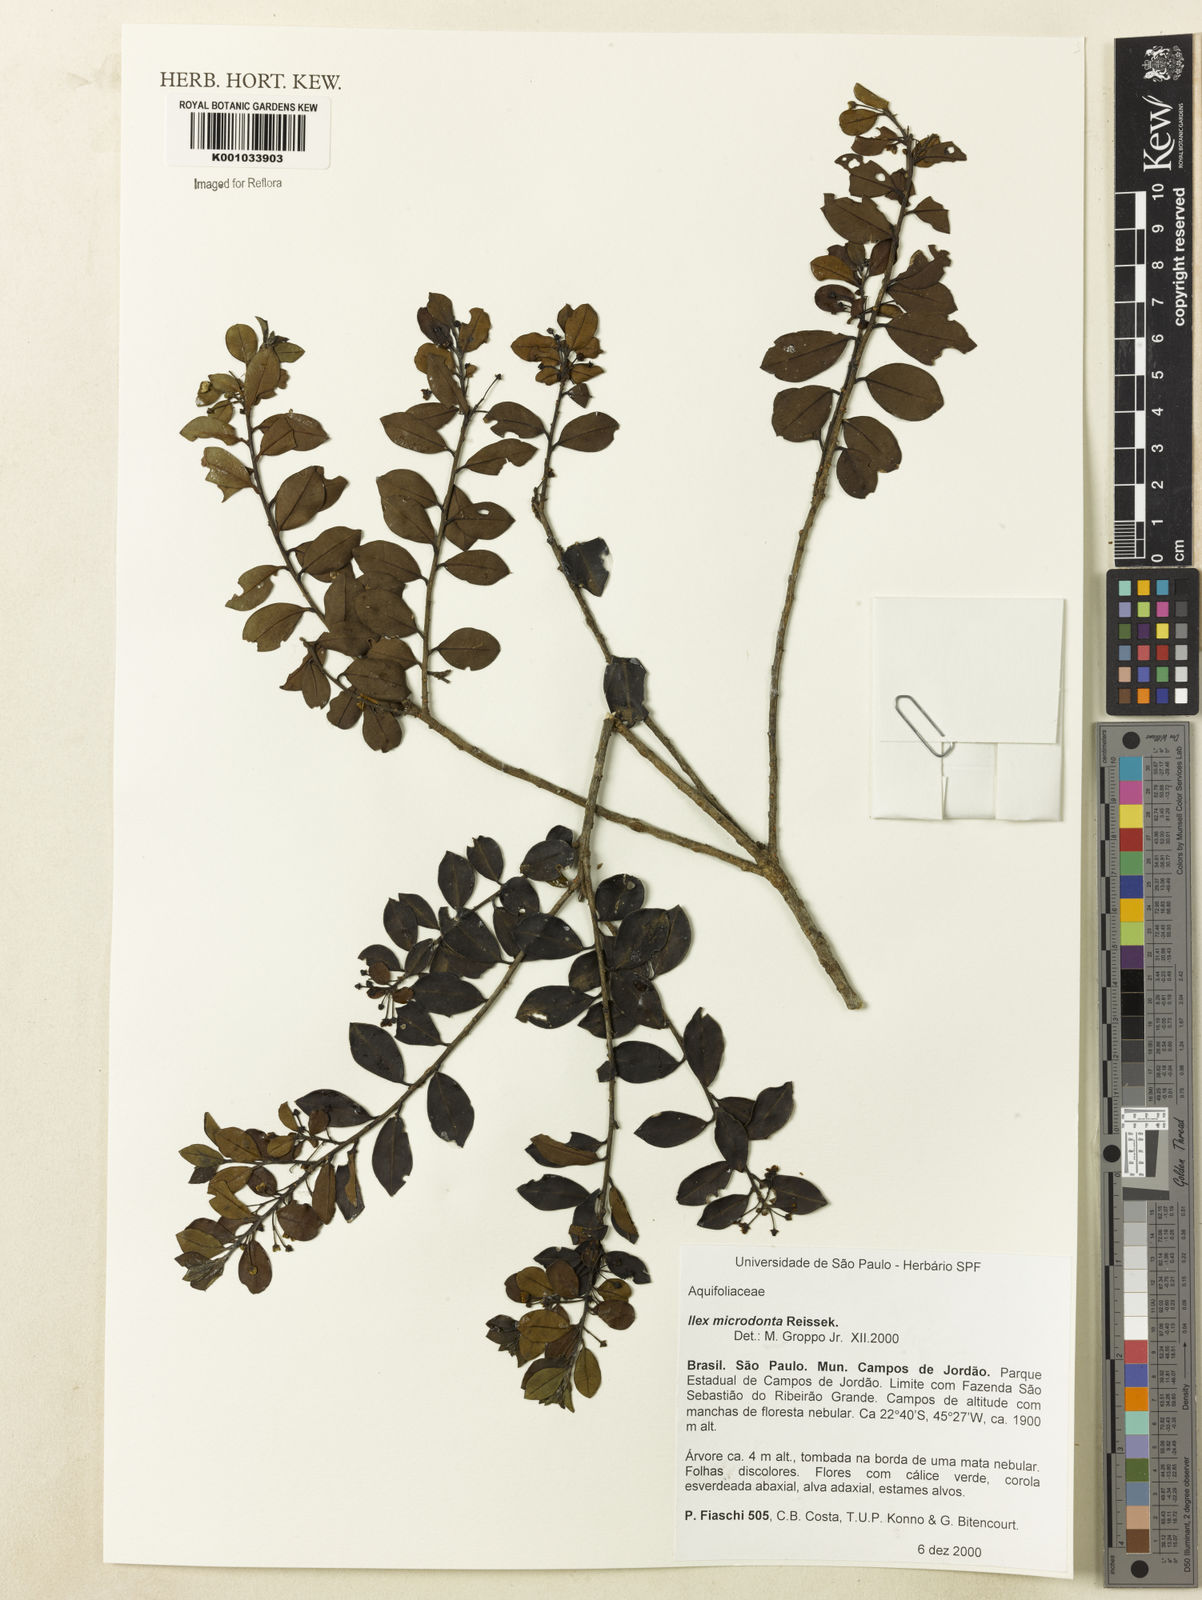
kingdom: Plantae
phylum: Tracheophyta
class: Magnoliopsida
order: Aquifoliales
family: Aquifoliaceae
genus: Ilex
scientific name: Ilex microdonta
